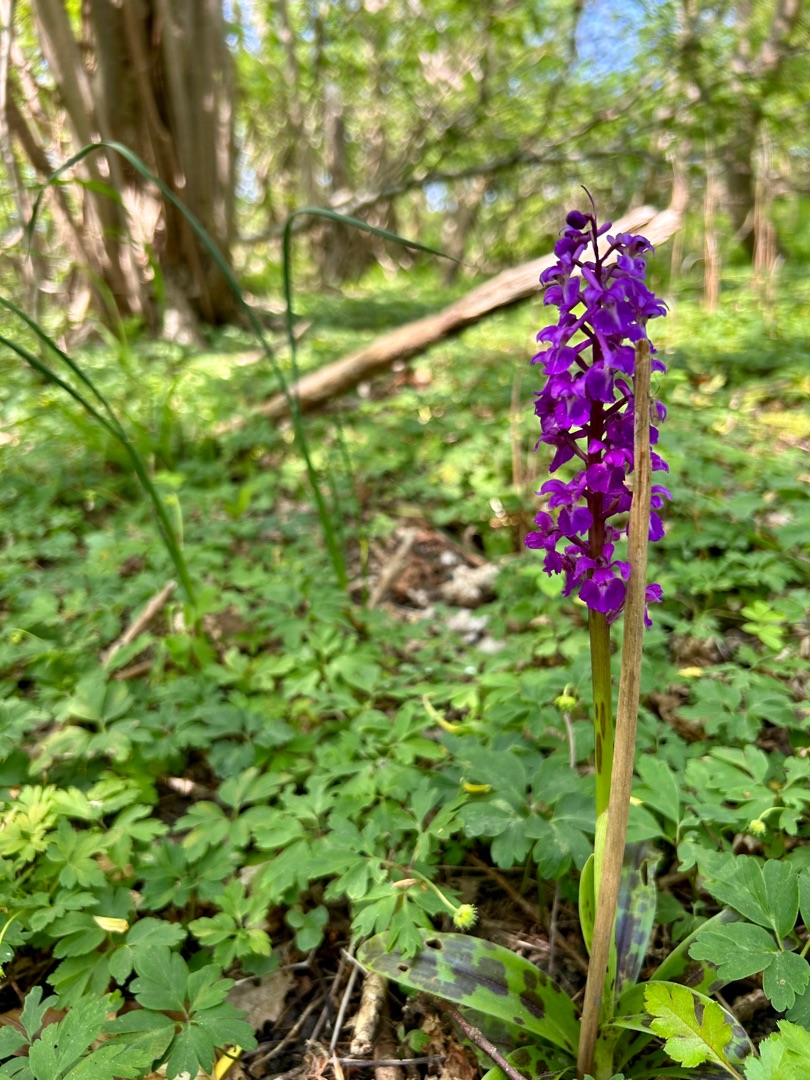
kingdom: Plantae
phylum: Tracheophyta
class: Liliopsida
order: Asparagales
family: Orchidaceae
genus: Orchis
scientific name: Orchis mascula
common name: Tyndakset gøgeurt
